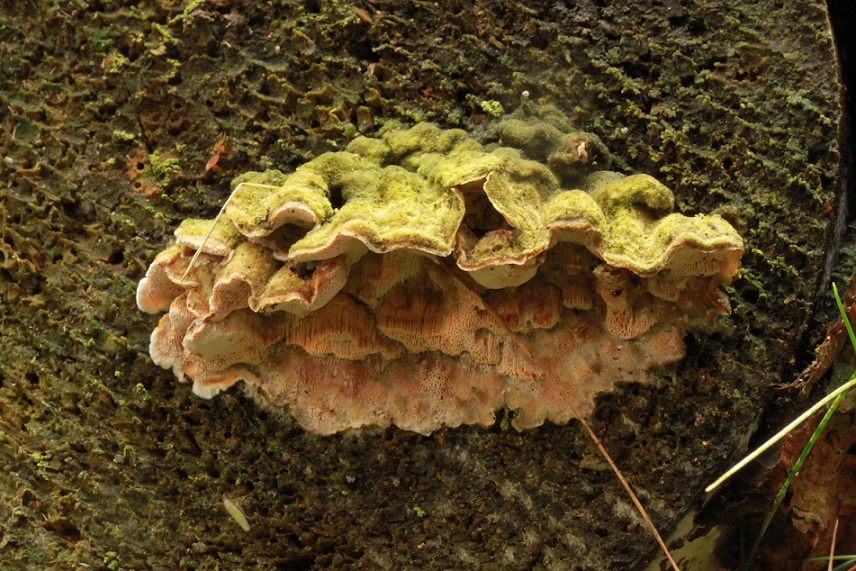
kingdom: Fungi
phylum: Basidiomycota
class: Agaricomycetes
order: Polyporales
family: Incrustoporiaceae
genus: Skeletocutis
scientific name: Skeletocutis amorpha
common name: orange krystalporesvamp
